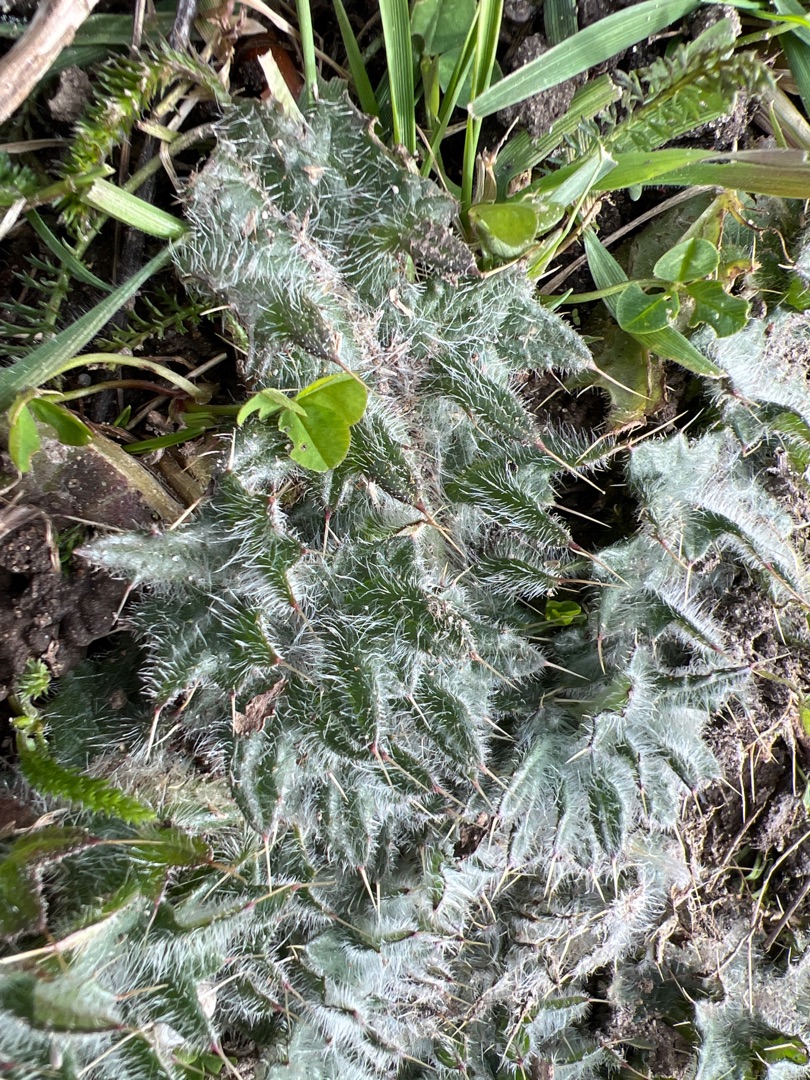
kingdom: Plantae
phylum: Tracheophyta
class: Magnoliopsida
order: Asterales
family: Asteraceae
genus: Cirsium
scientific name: Cirsium vulgare
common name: Horse-tidsel
